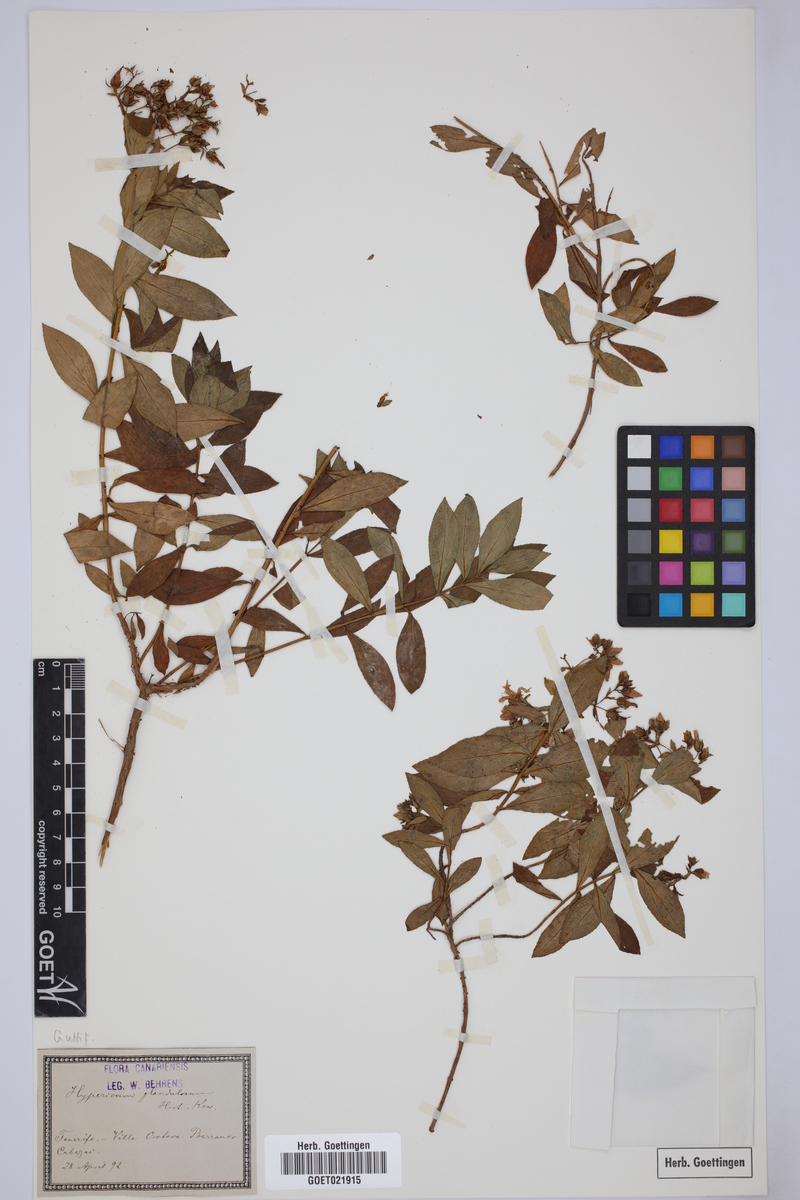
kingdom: Plantae
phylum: Tracheophyta
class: Magnoliopsida
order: Malpighiales
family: Hypericaceae
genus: Hypericum
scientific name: Hypericum glandulosum
